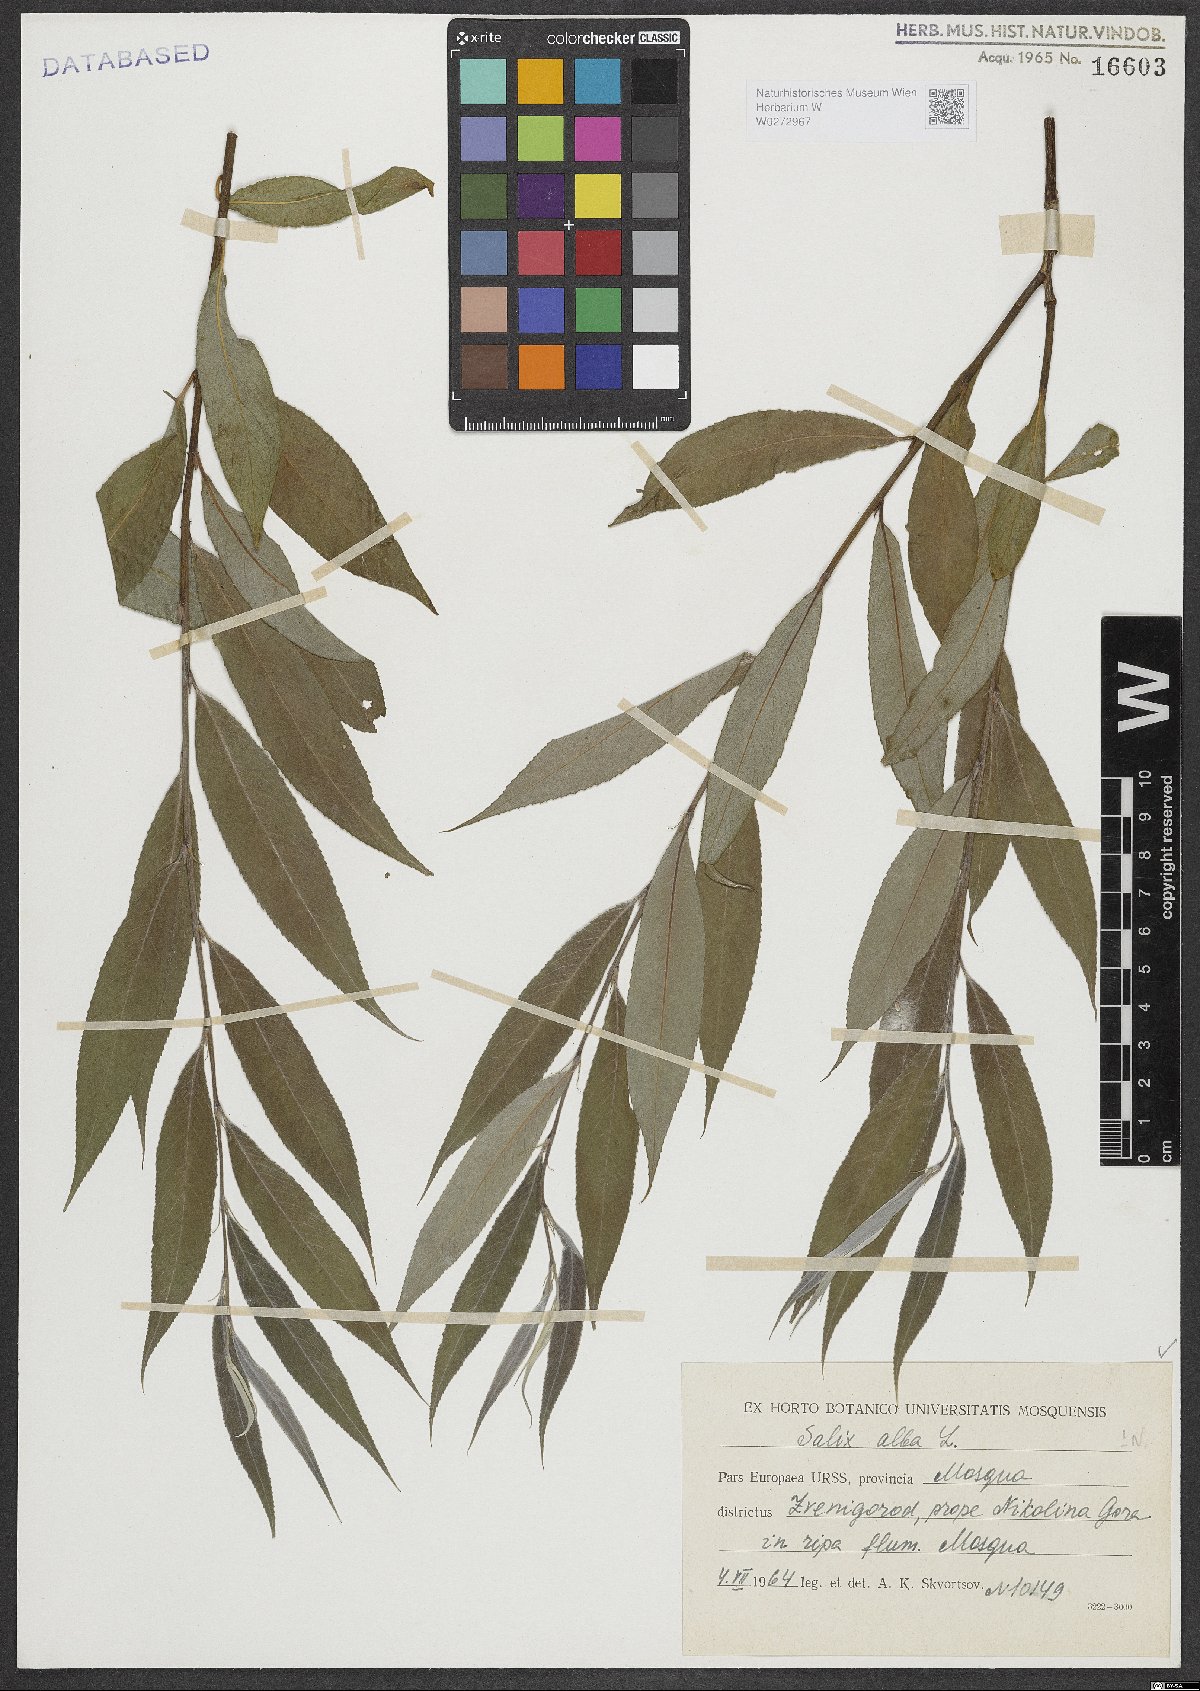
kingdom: Plantae
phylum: Tracheophyta
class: Magnoliopsida
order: Malpighiales
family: Salicaceae
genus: Salix
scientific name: Salix alba
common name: White willow
